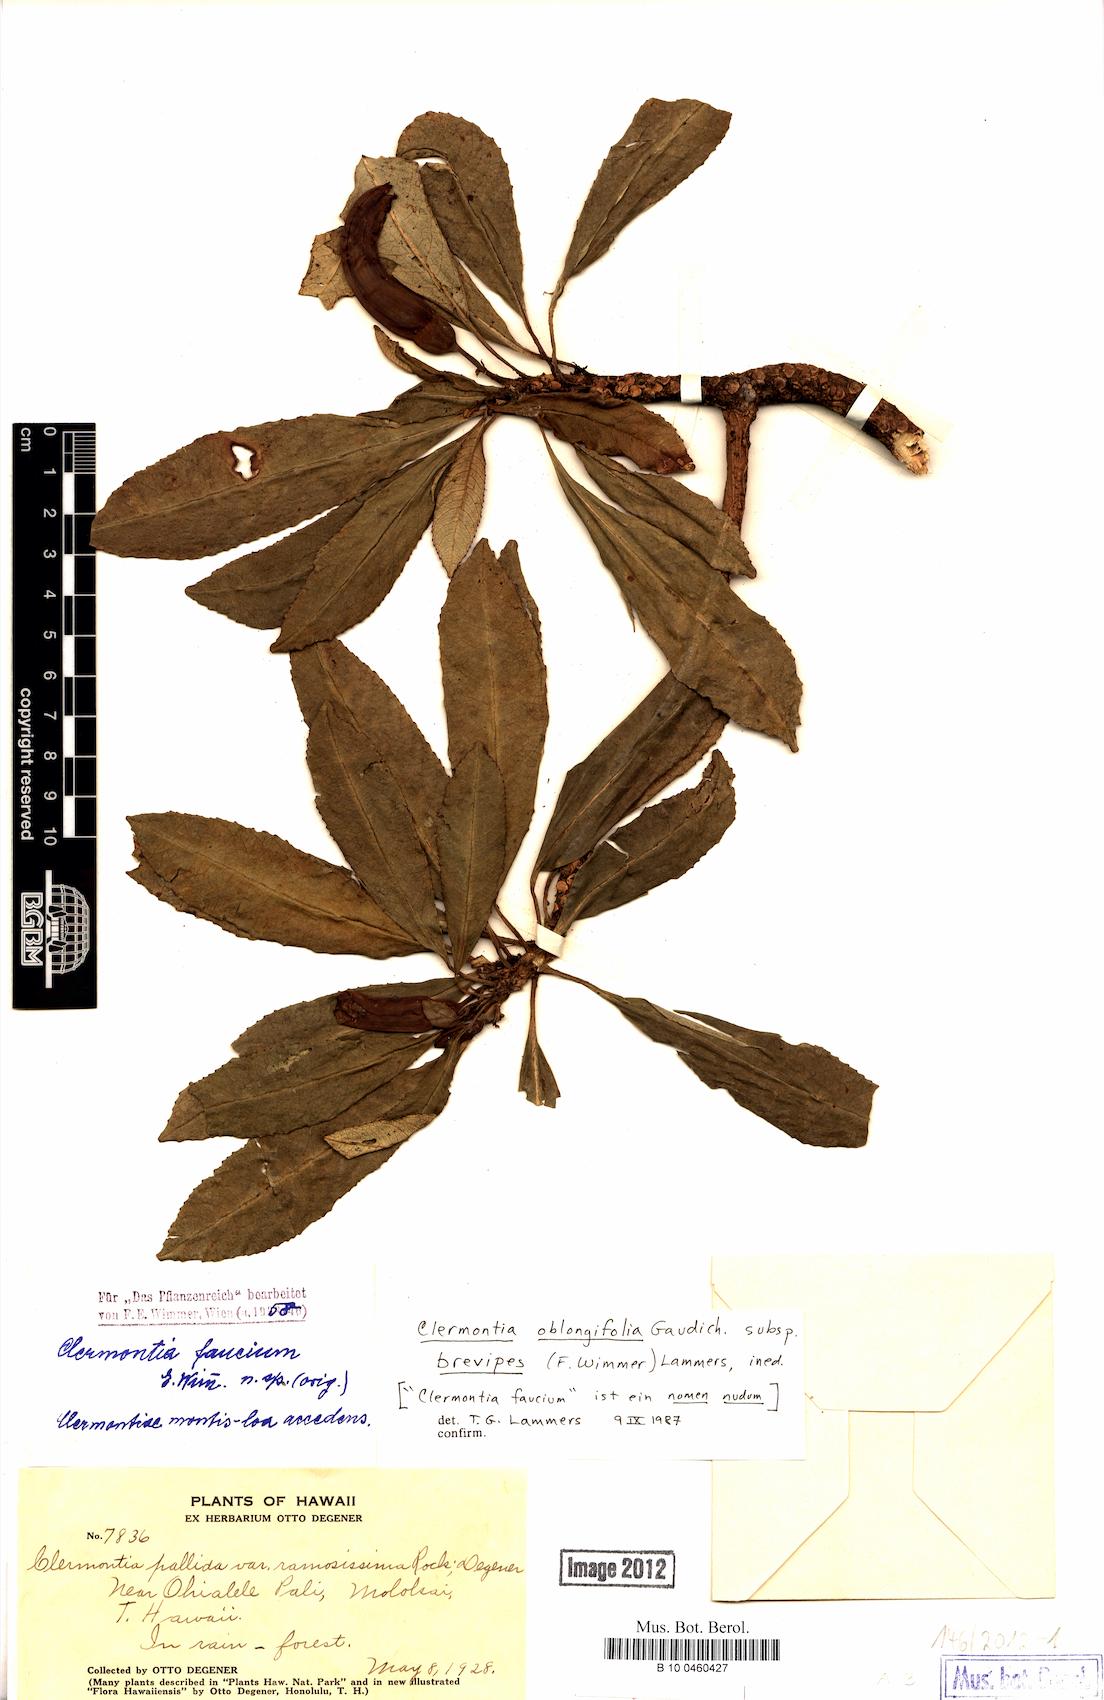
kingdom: Plantae
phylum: Tracheophyta
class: Magnoliopsida
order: Asterales
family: Campanulaceae
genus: Clermontia
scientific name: Clermontia oblongifolia
